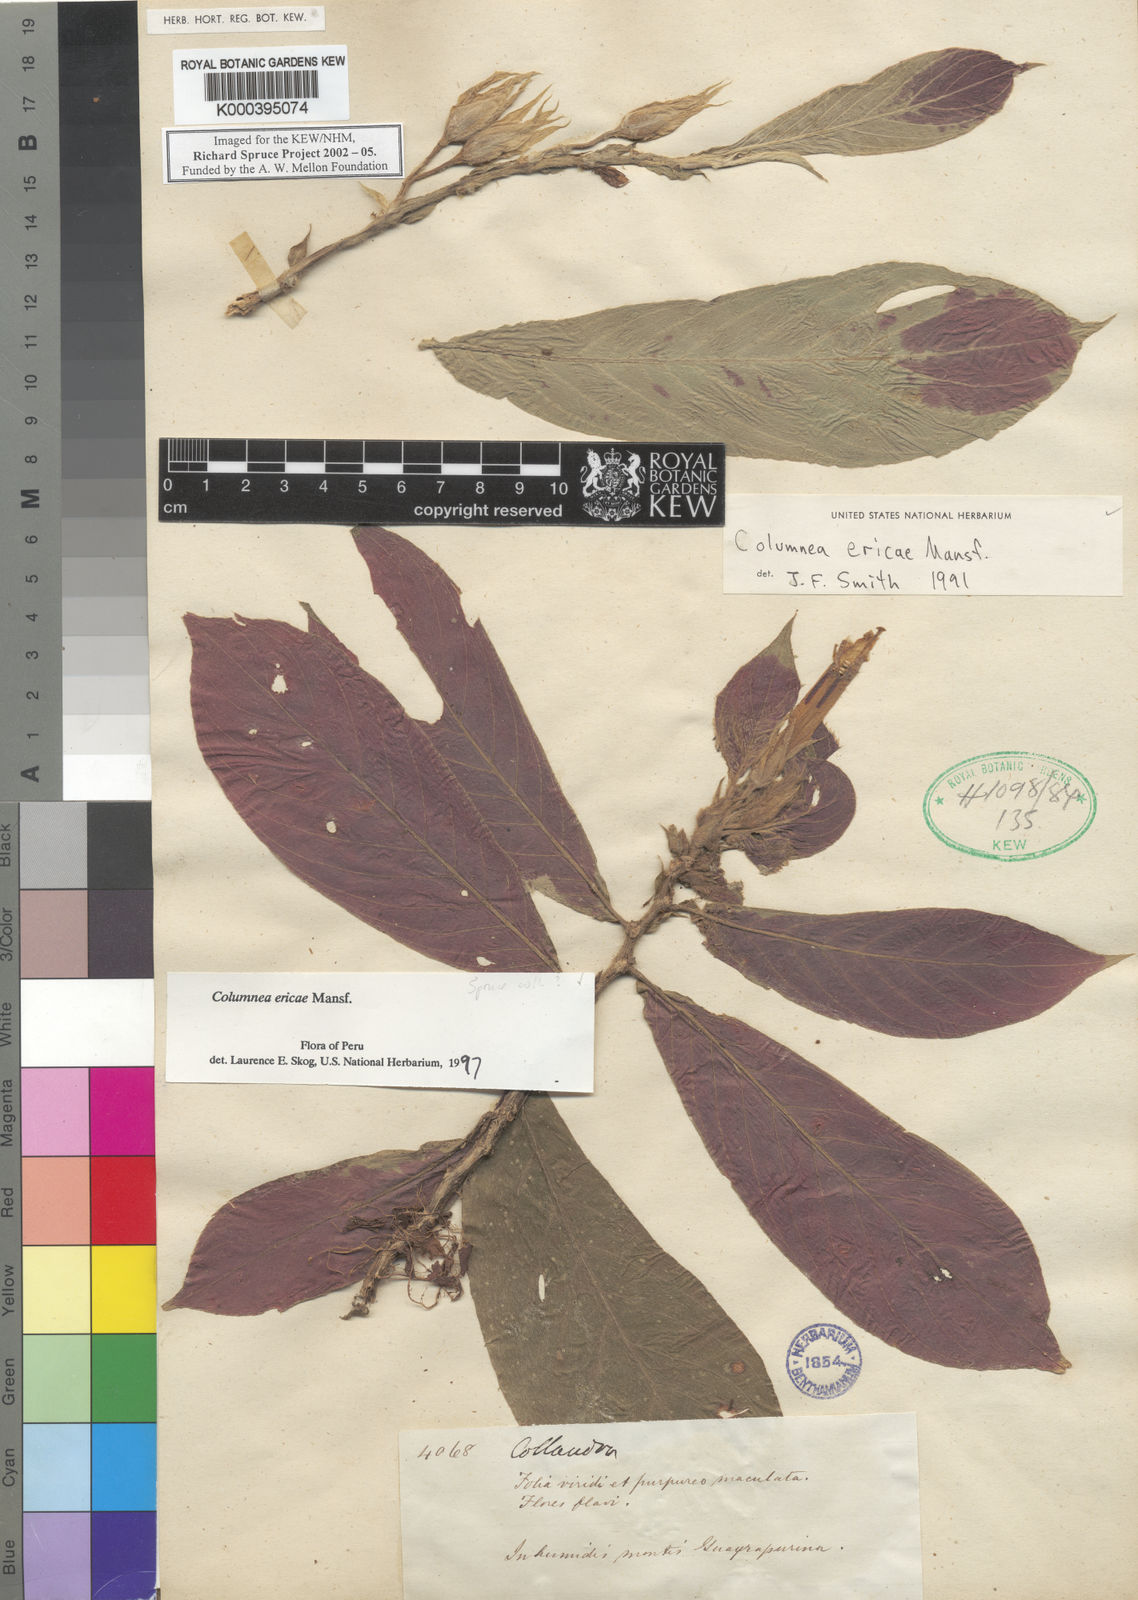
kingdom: Plantae
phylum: Tracheophyta
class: Magnoliopsida
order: Lamiales
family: Gesneriaceae
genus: Columnea
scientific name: Columnea ericae
